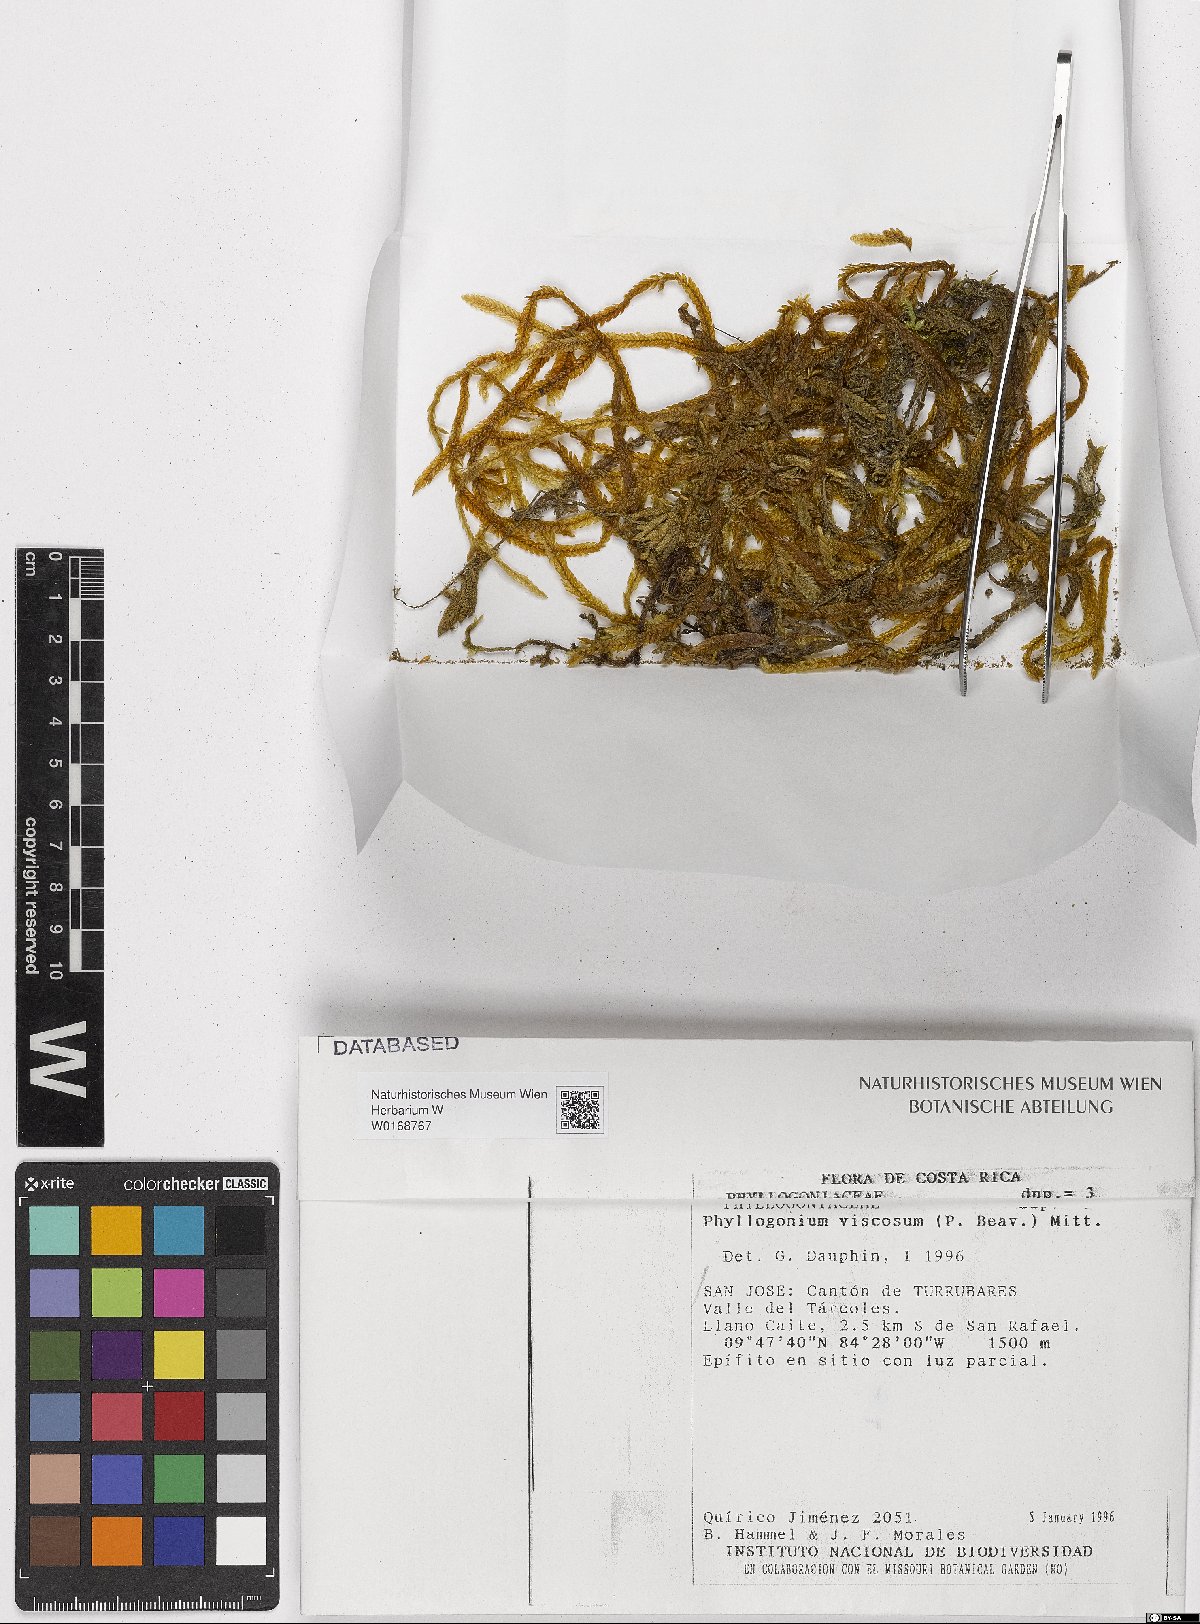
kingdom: Plantae
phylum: Bryophyta
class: Bryopsida
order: Hypnales
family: Phyllogoniaceae
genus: Phyllogonium
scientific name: Phyllogonium viscosum
